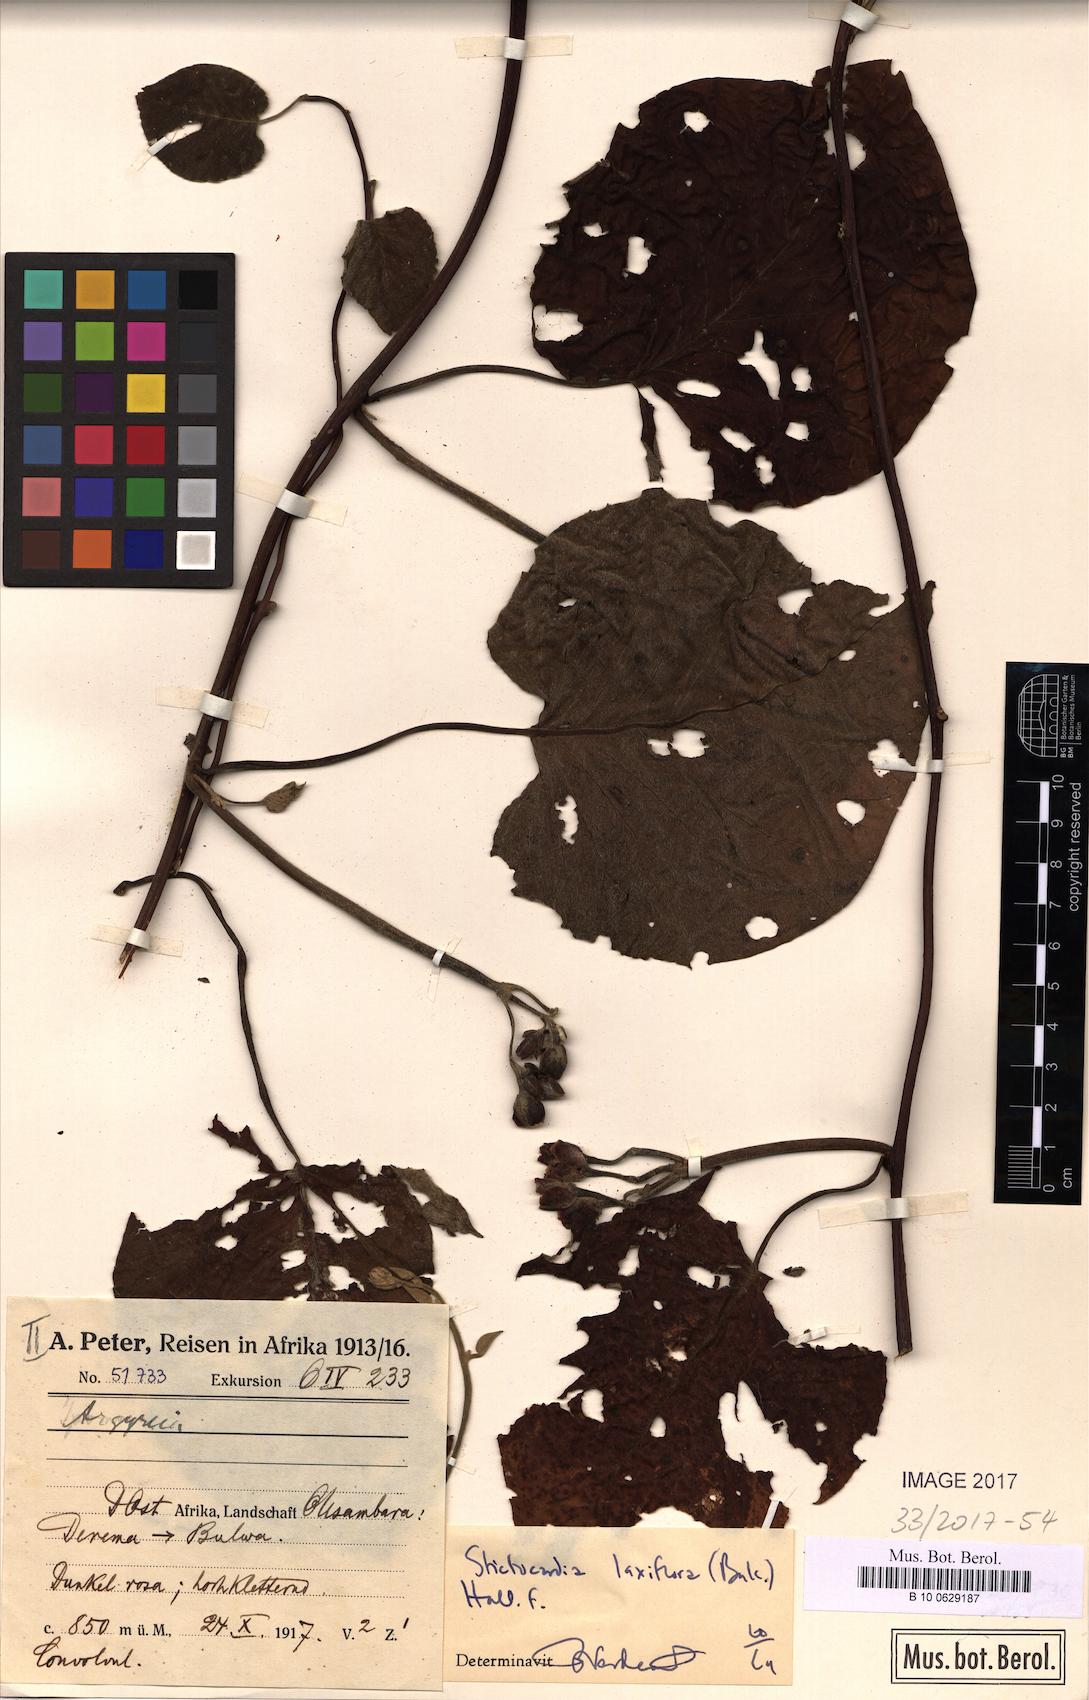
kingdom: Plantae
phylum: Tracheophyta
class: Magnoliopsida
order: Solanales
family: Convolvulaceae
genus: Stictocardia
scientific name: Stictocardia laxiflora
